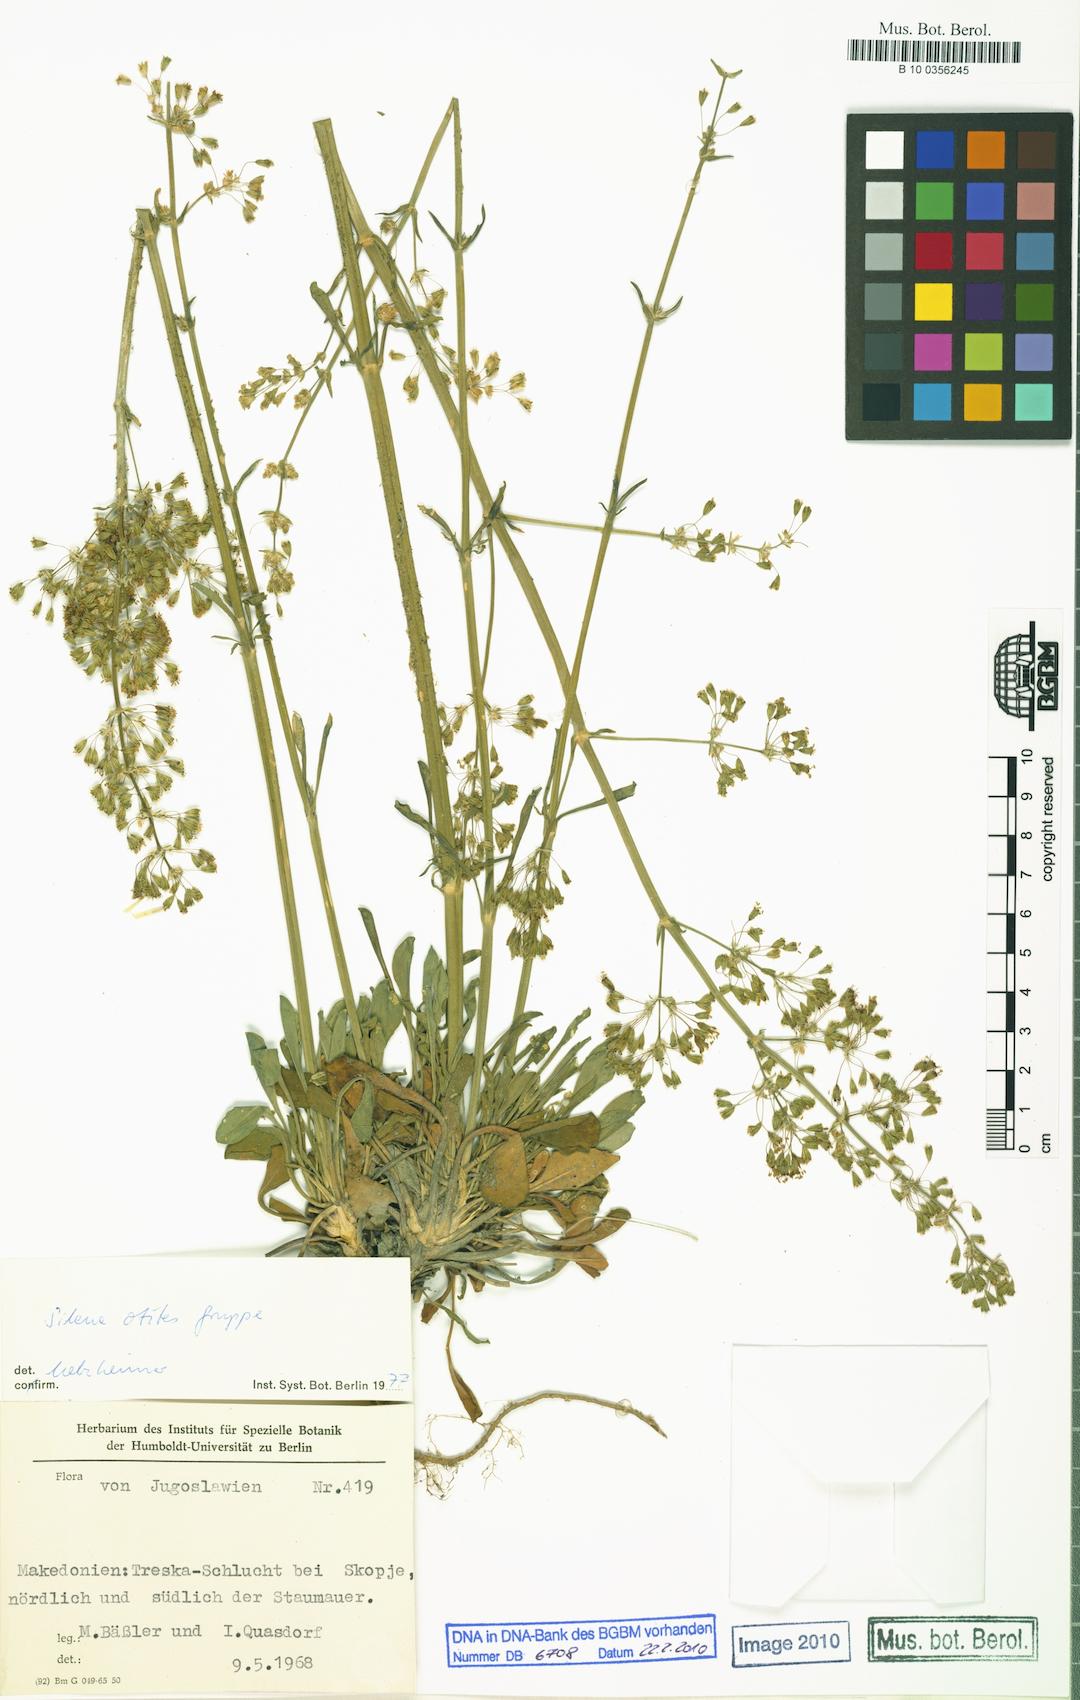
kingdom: Plantae
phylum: Tracheophyta
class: Magnoliopsida
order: Caryophyllales
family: Caryophyllaceae
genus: Silene
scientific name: Silene otites
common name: Spanish catchfly
